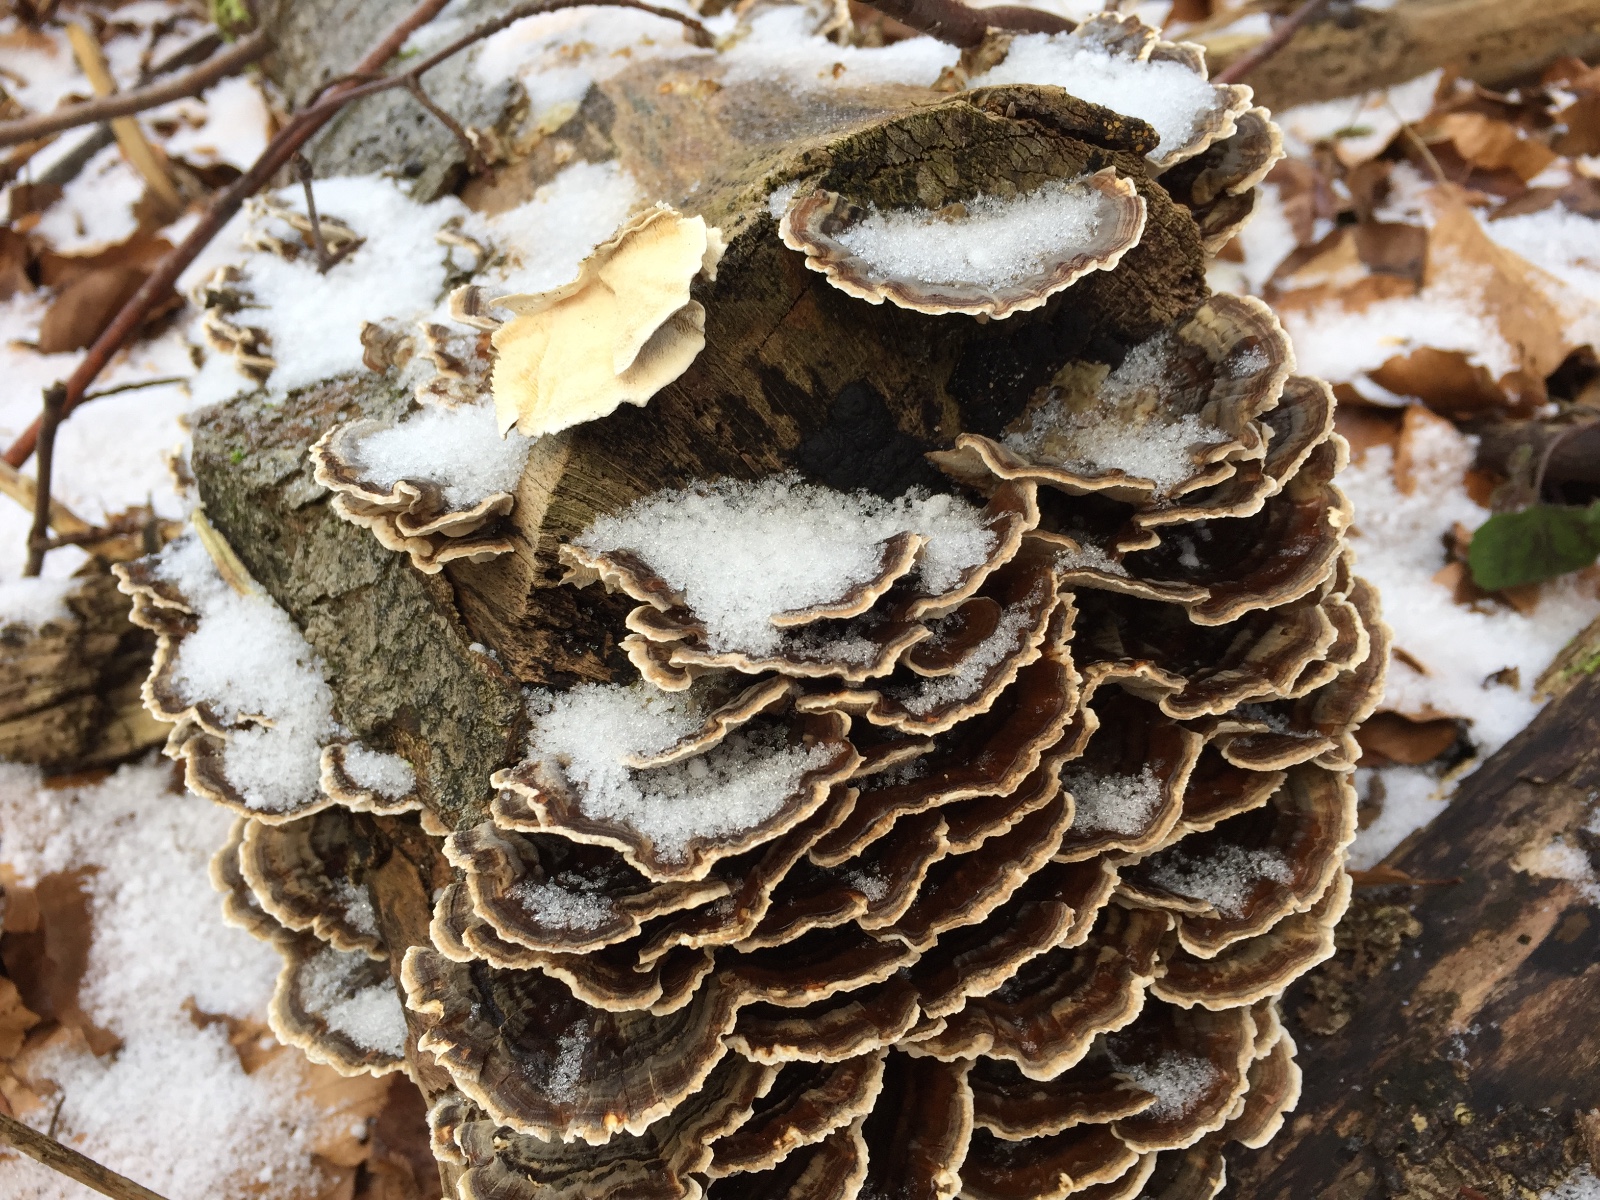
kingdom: Fungi
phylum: Basidiomycota
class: Agaricomycetes
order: Polyporales
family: Polyporaceae
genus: Trametes
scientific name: Trametes versicolor
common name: broget læderporesvamp
